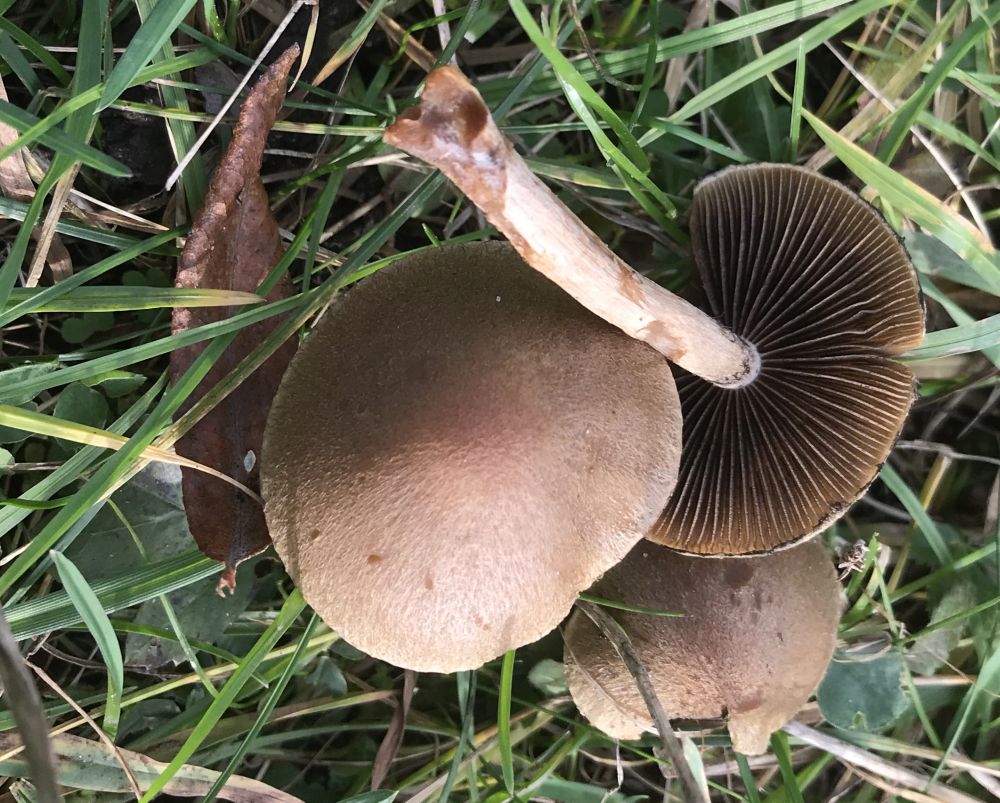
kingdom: Fungi
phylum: Basidiomycota
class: Agaricomycetes
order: Agaricales
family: Psathyrellaceae
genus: Lacrymaria
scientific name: Lacrymaria lacrymabunda
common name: grædende mørkhat
